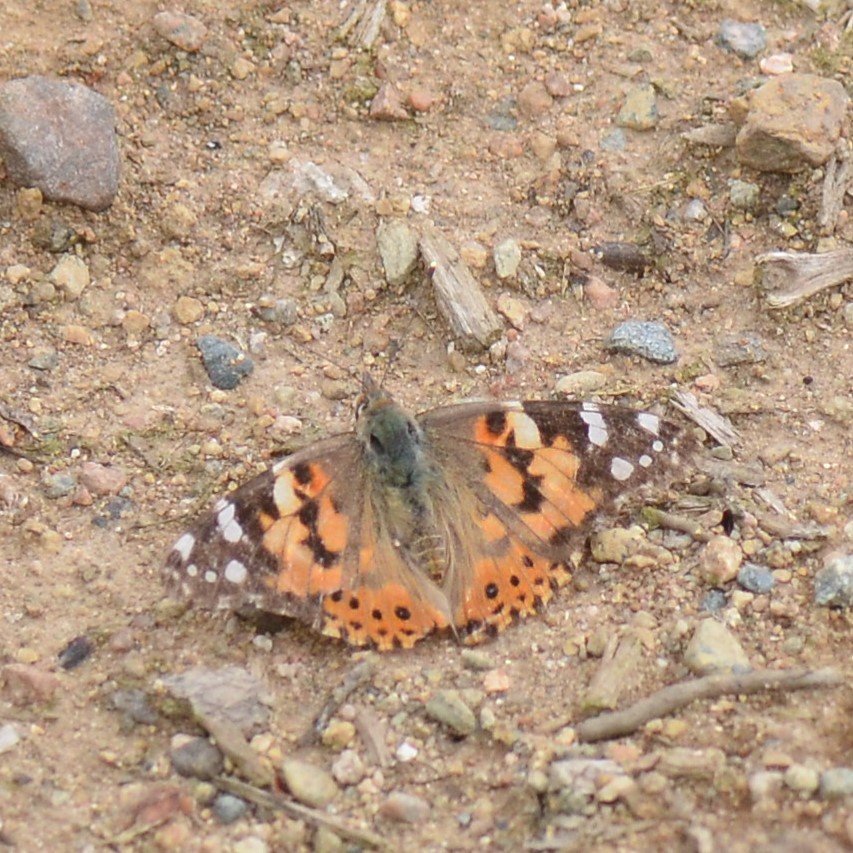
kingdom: Animalia
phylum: Arthropoda
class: Insecta
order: Lepidoptera
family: Nymphalidae
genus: Vanessa
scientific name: Vanessa cardui
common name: Painted Lady
